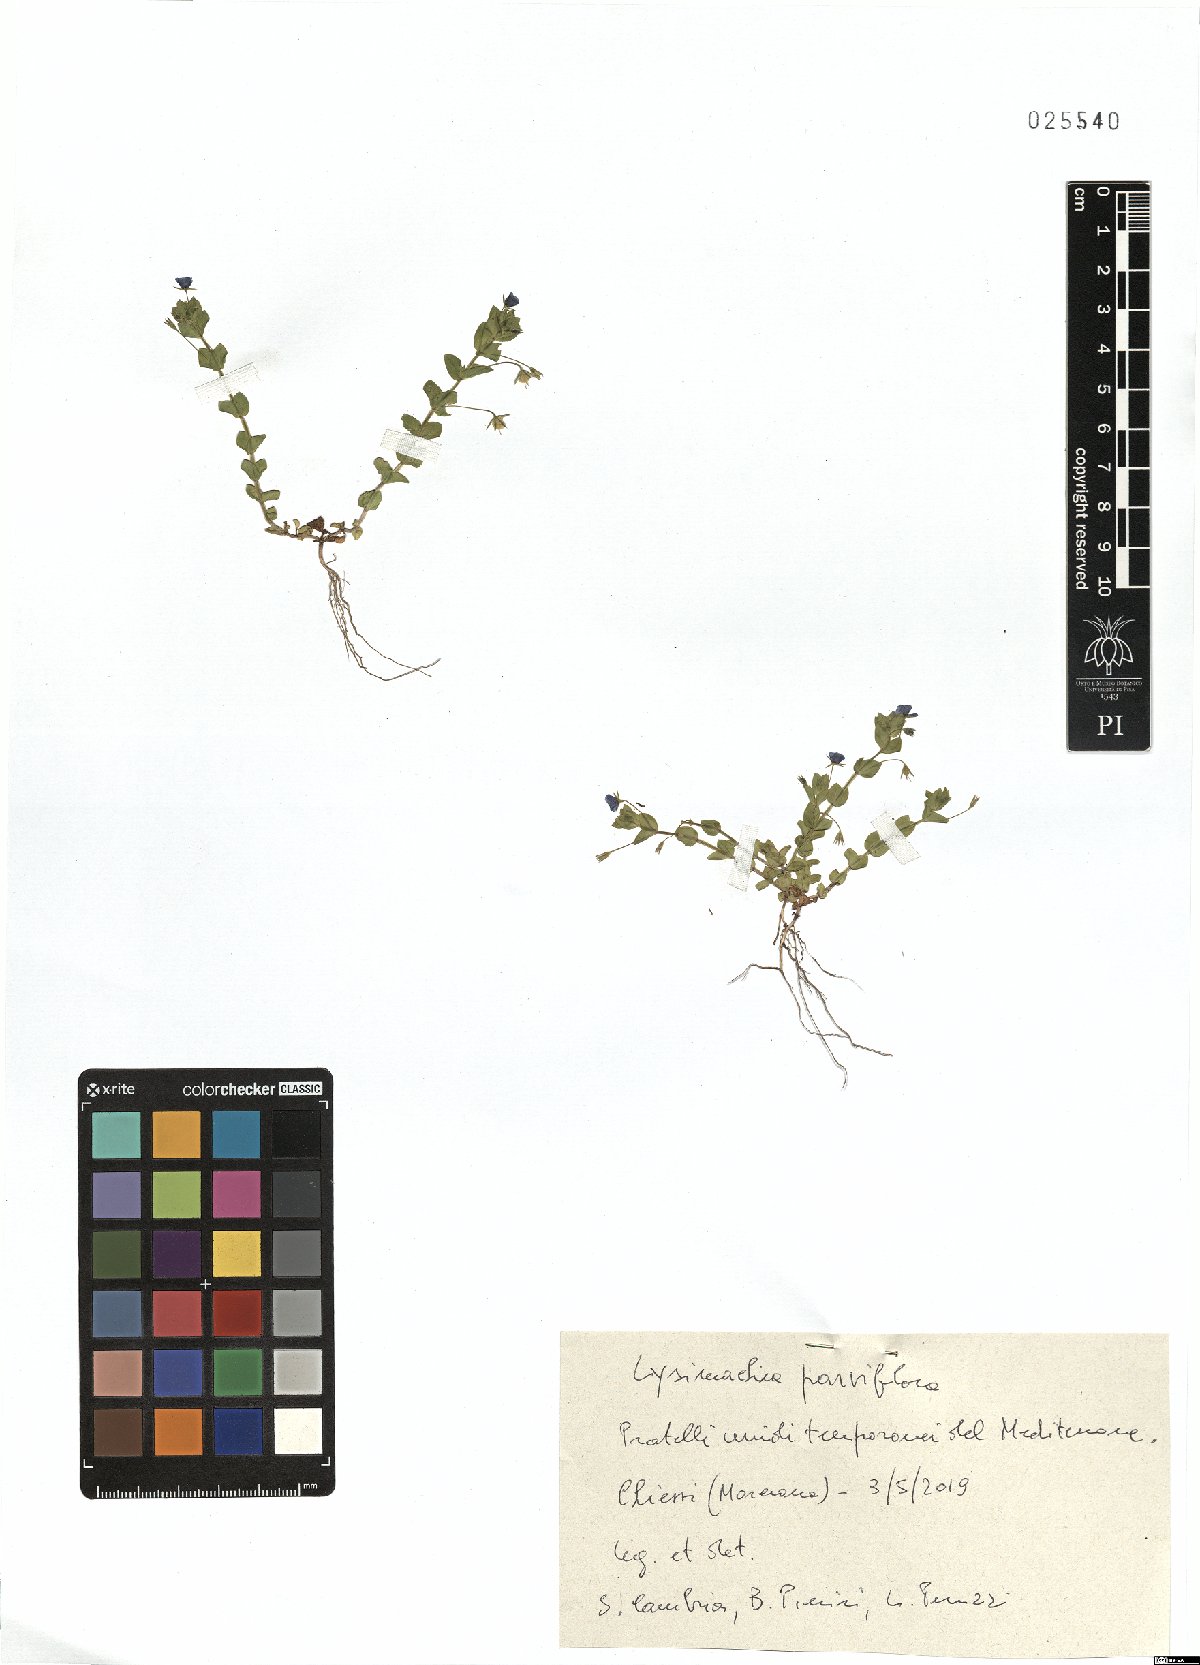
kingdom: Plantae
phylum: Tracheophyta
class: Magnoliopsida
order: Ericales
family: Primulaceae
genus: Lysimachia
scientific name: Lysimachia talaverae
